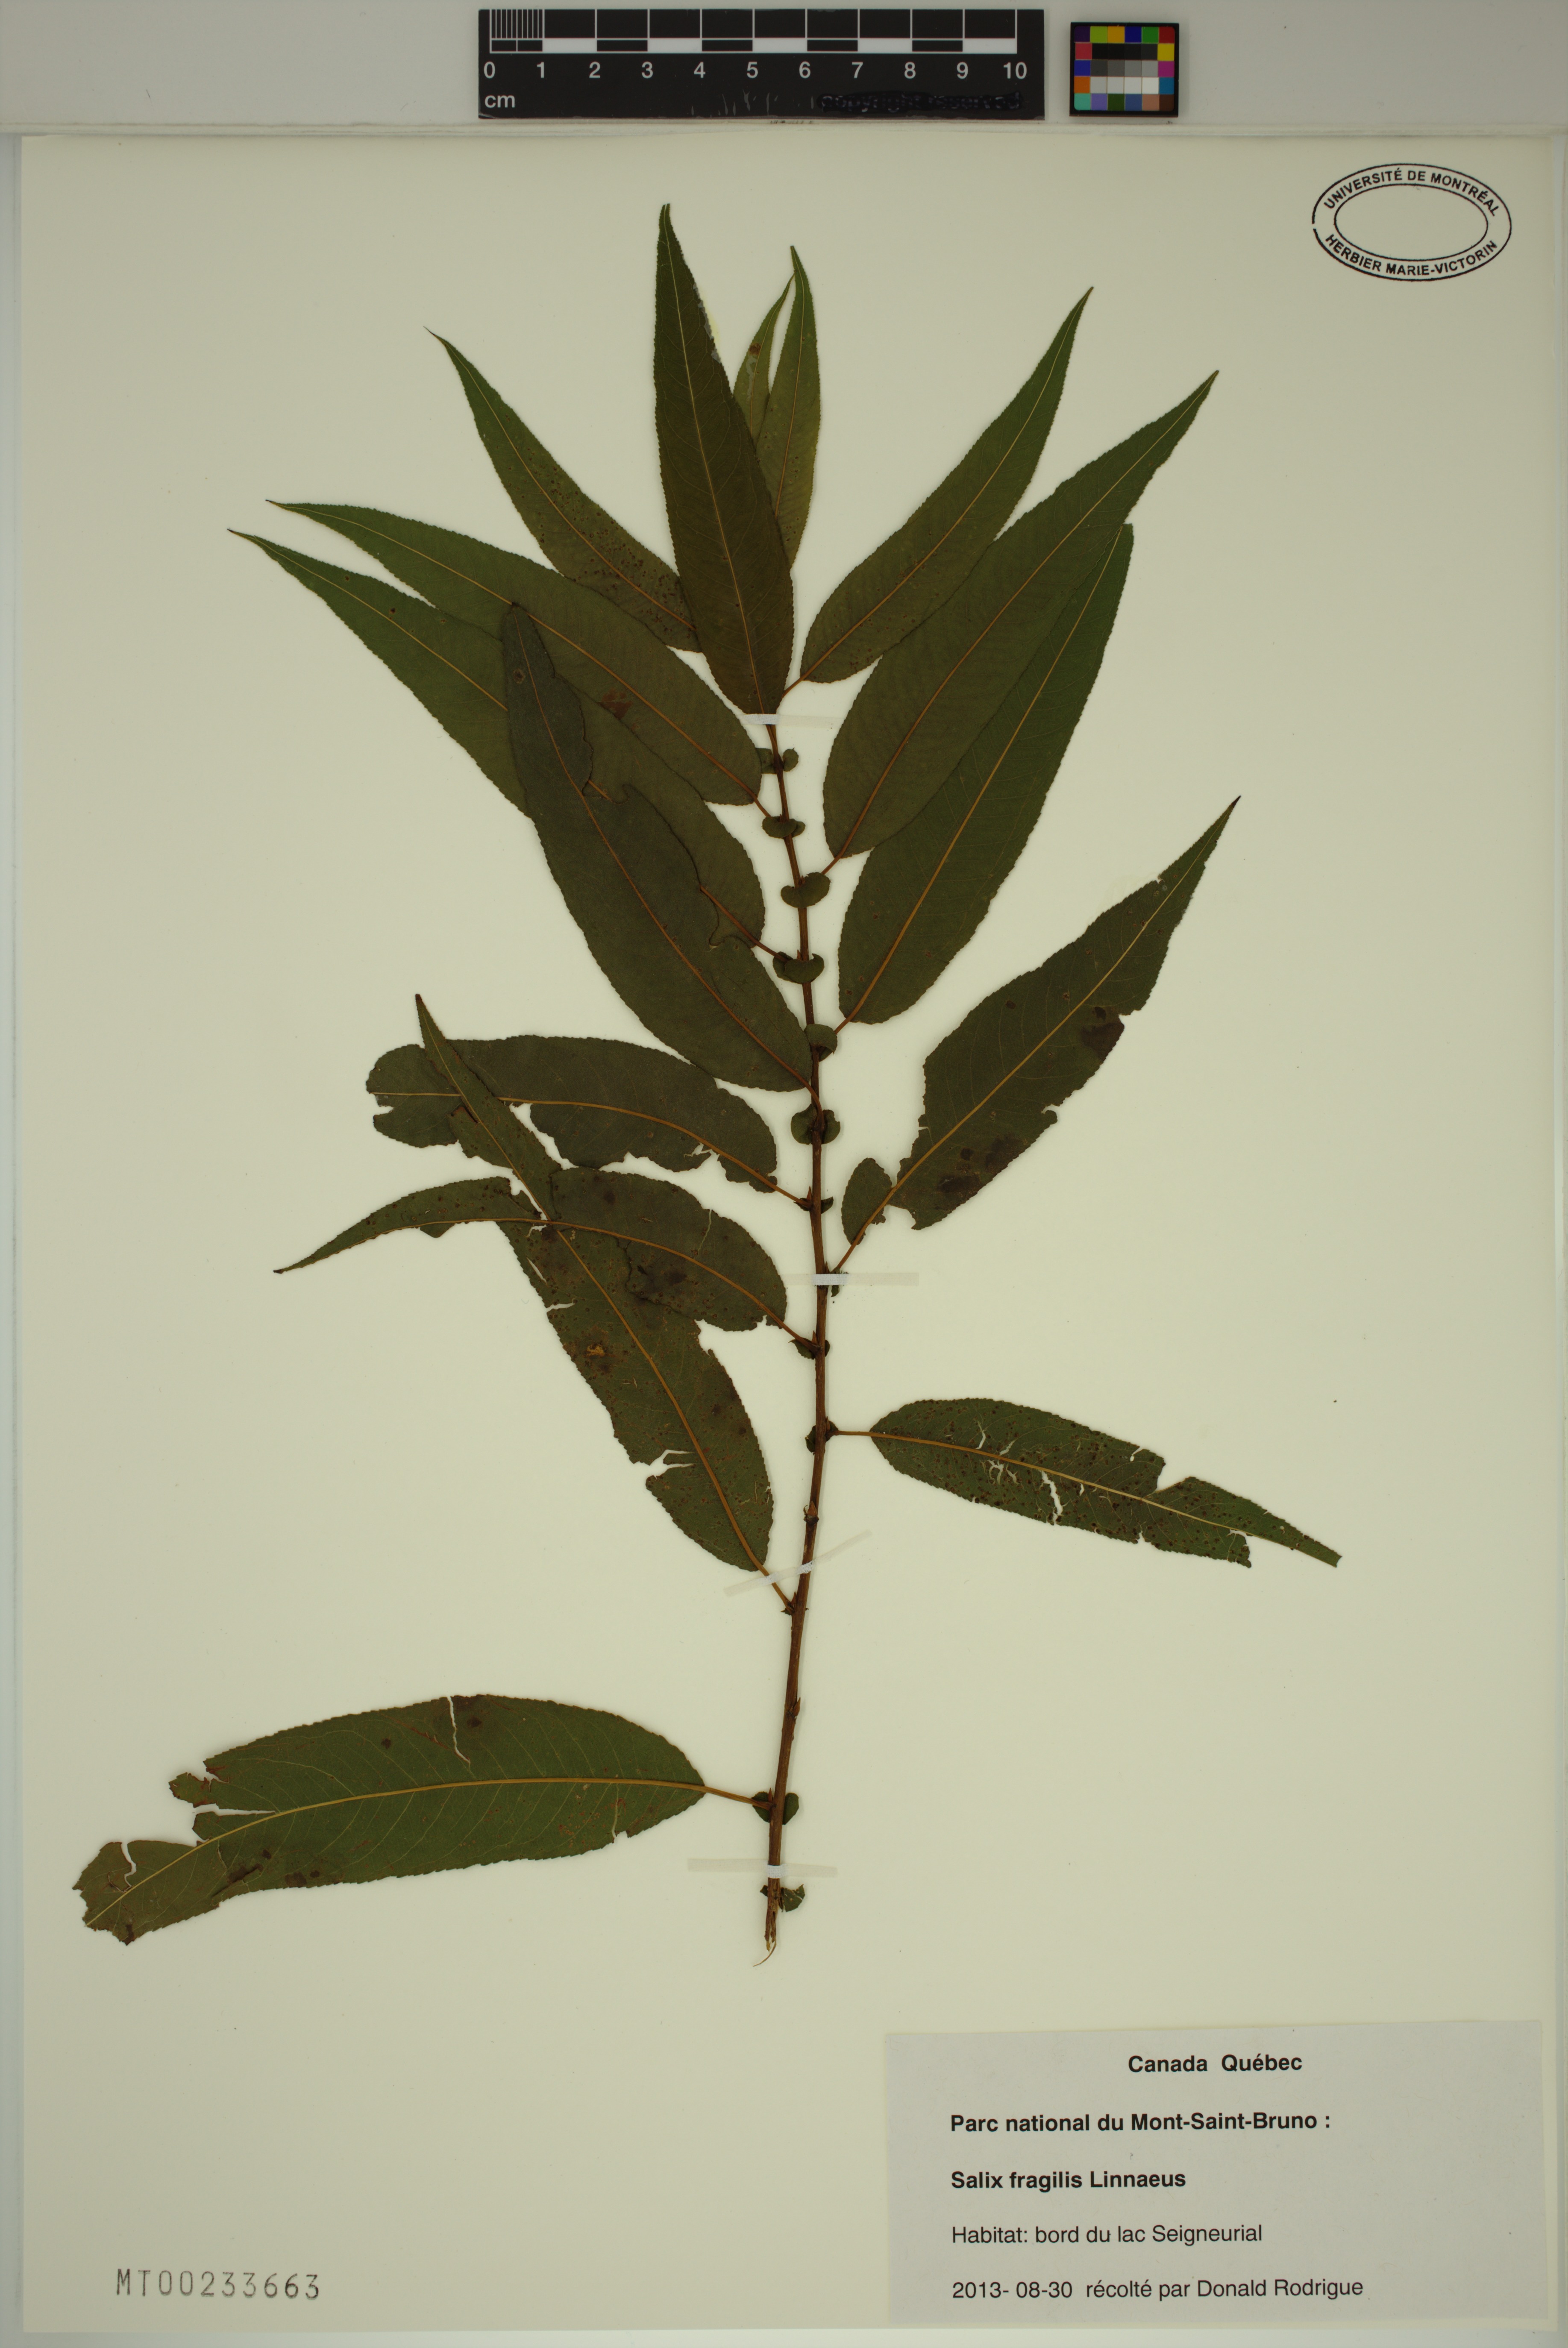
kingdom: Plantae
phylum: Tracheophyta
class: Magnoliopsida
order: Malpighiales
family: Salicaceae
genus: Salix
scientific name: Salix fragilis
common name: Crack willow
